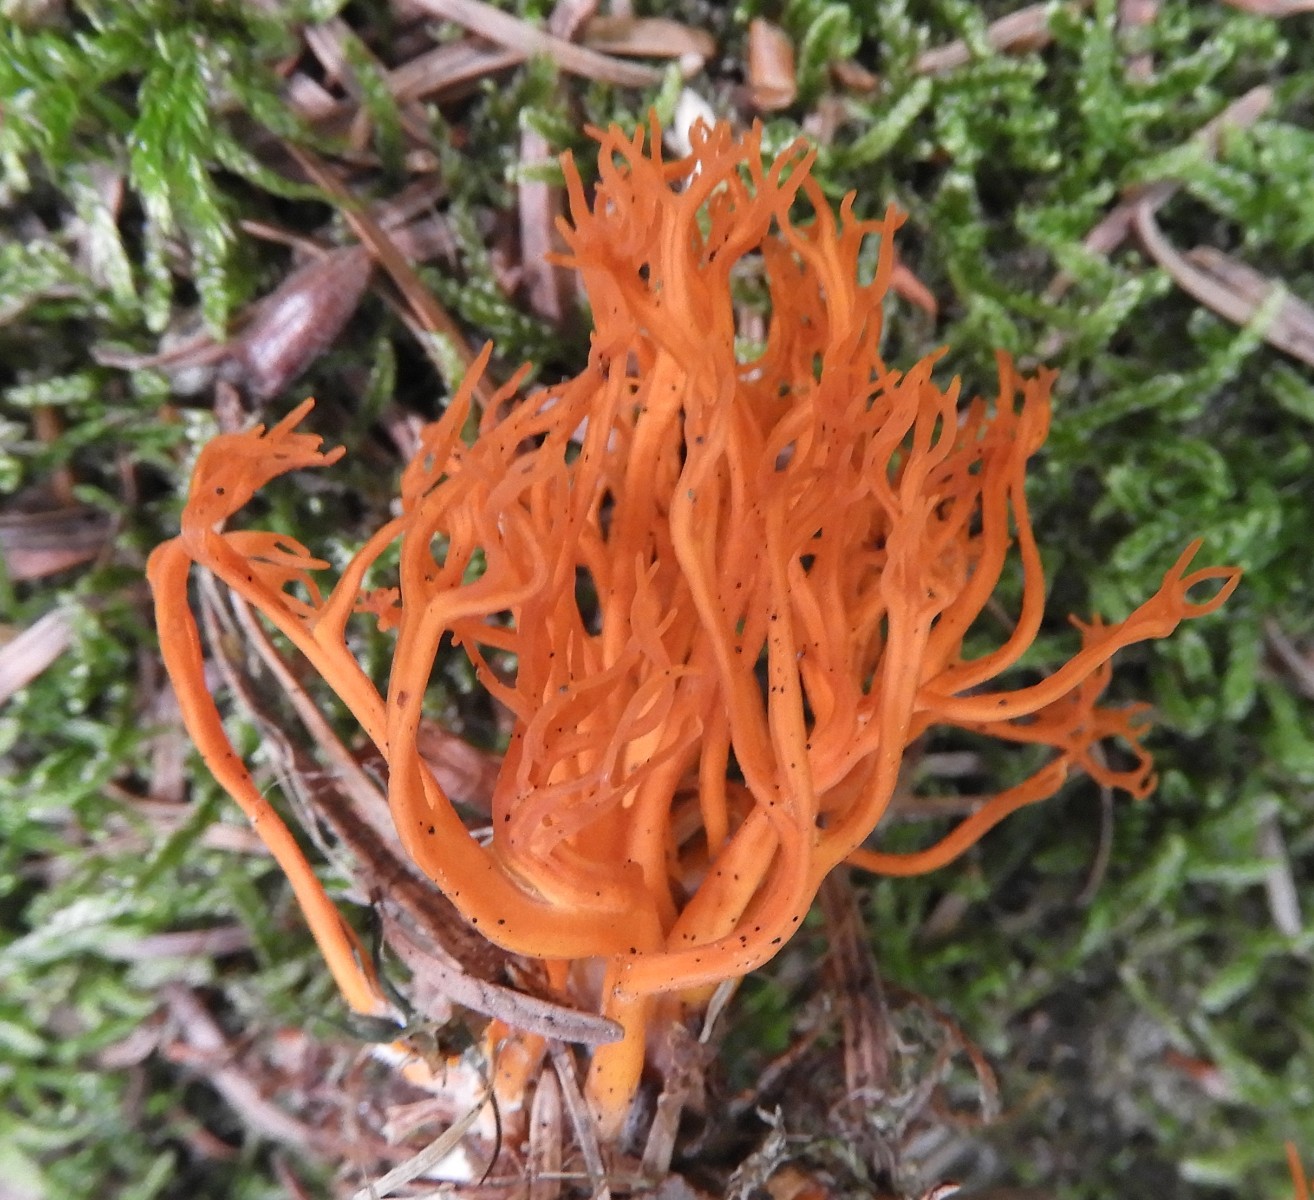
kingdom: Fungi
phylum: Basidiomycota
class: Dacrymycetes
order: Dacrymycetales
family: Dacrymycetaceae
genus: Calocera
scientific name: Calocera viscosa
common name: almindelig guldgaffel
